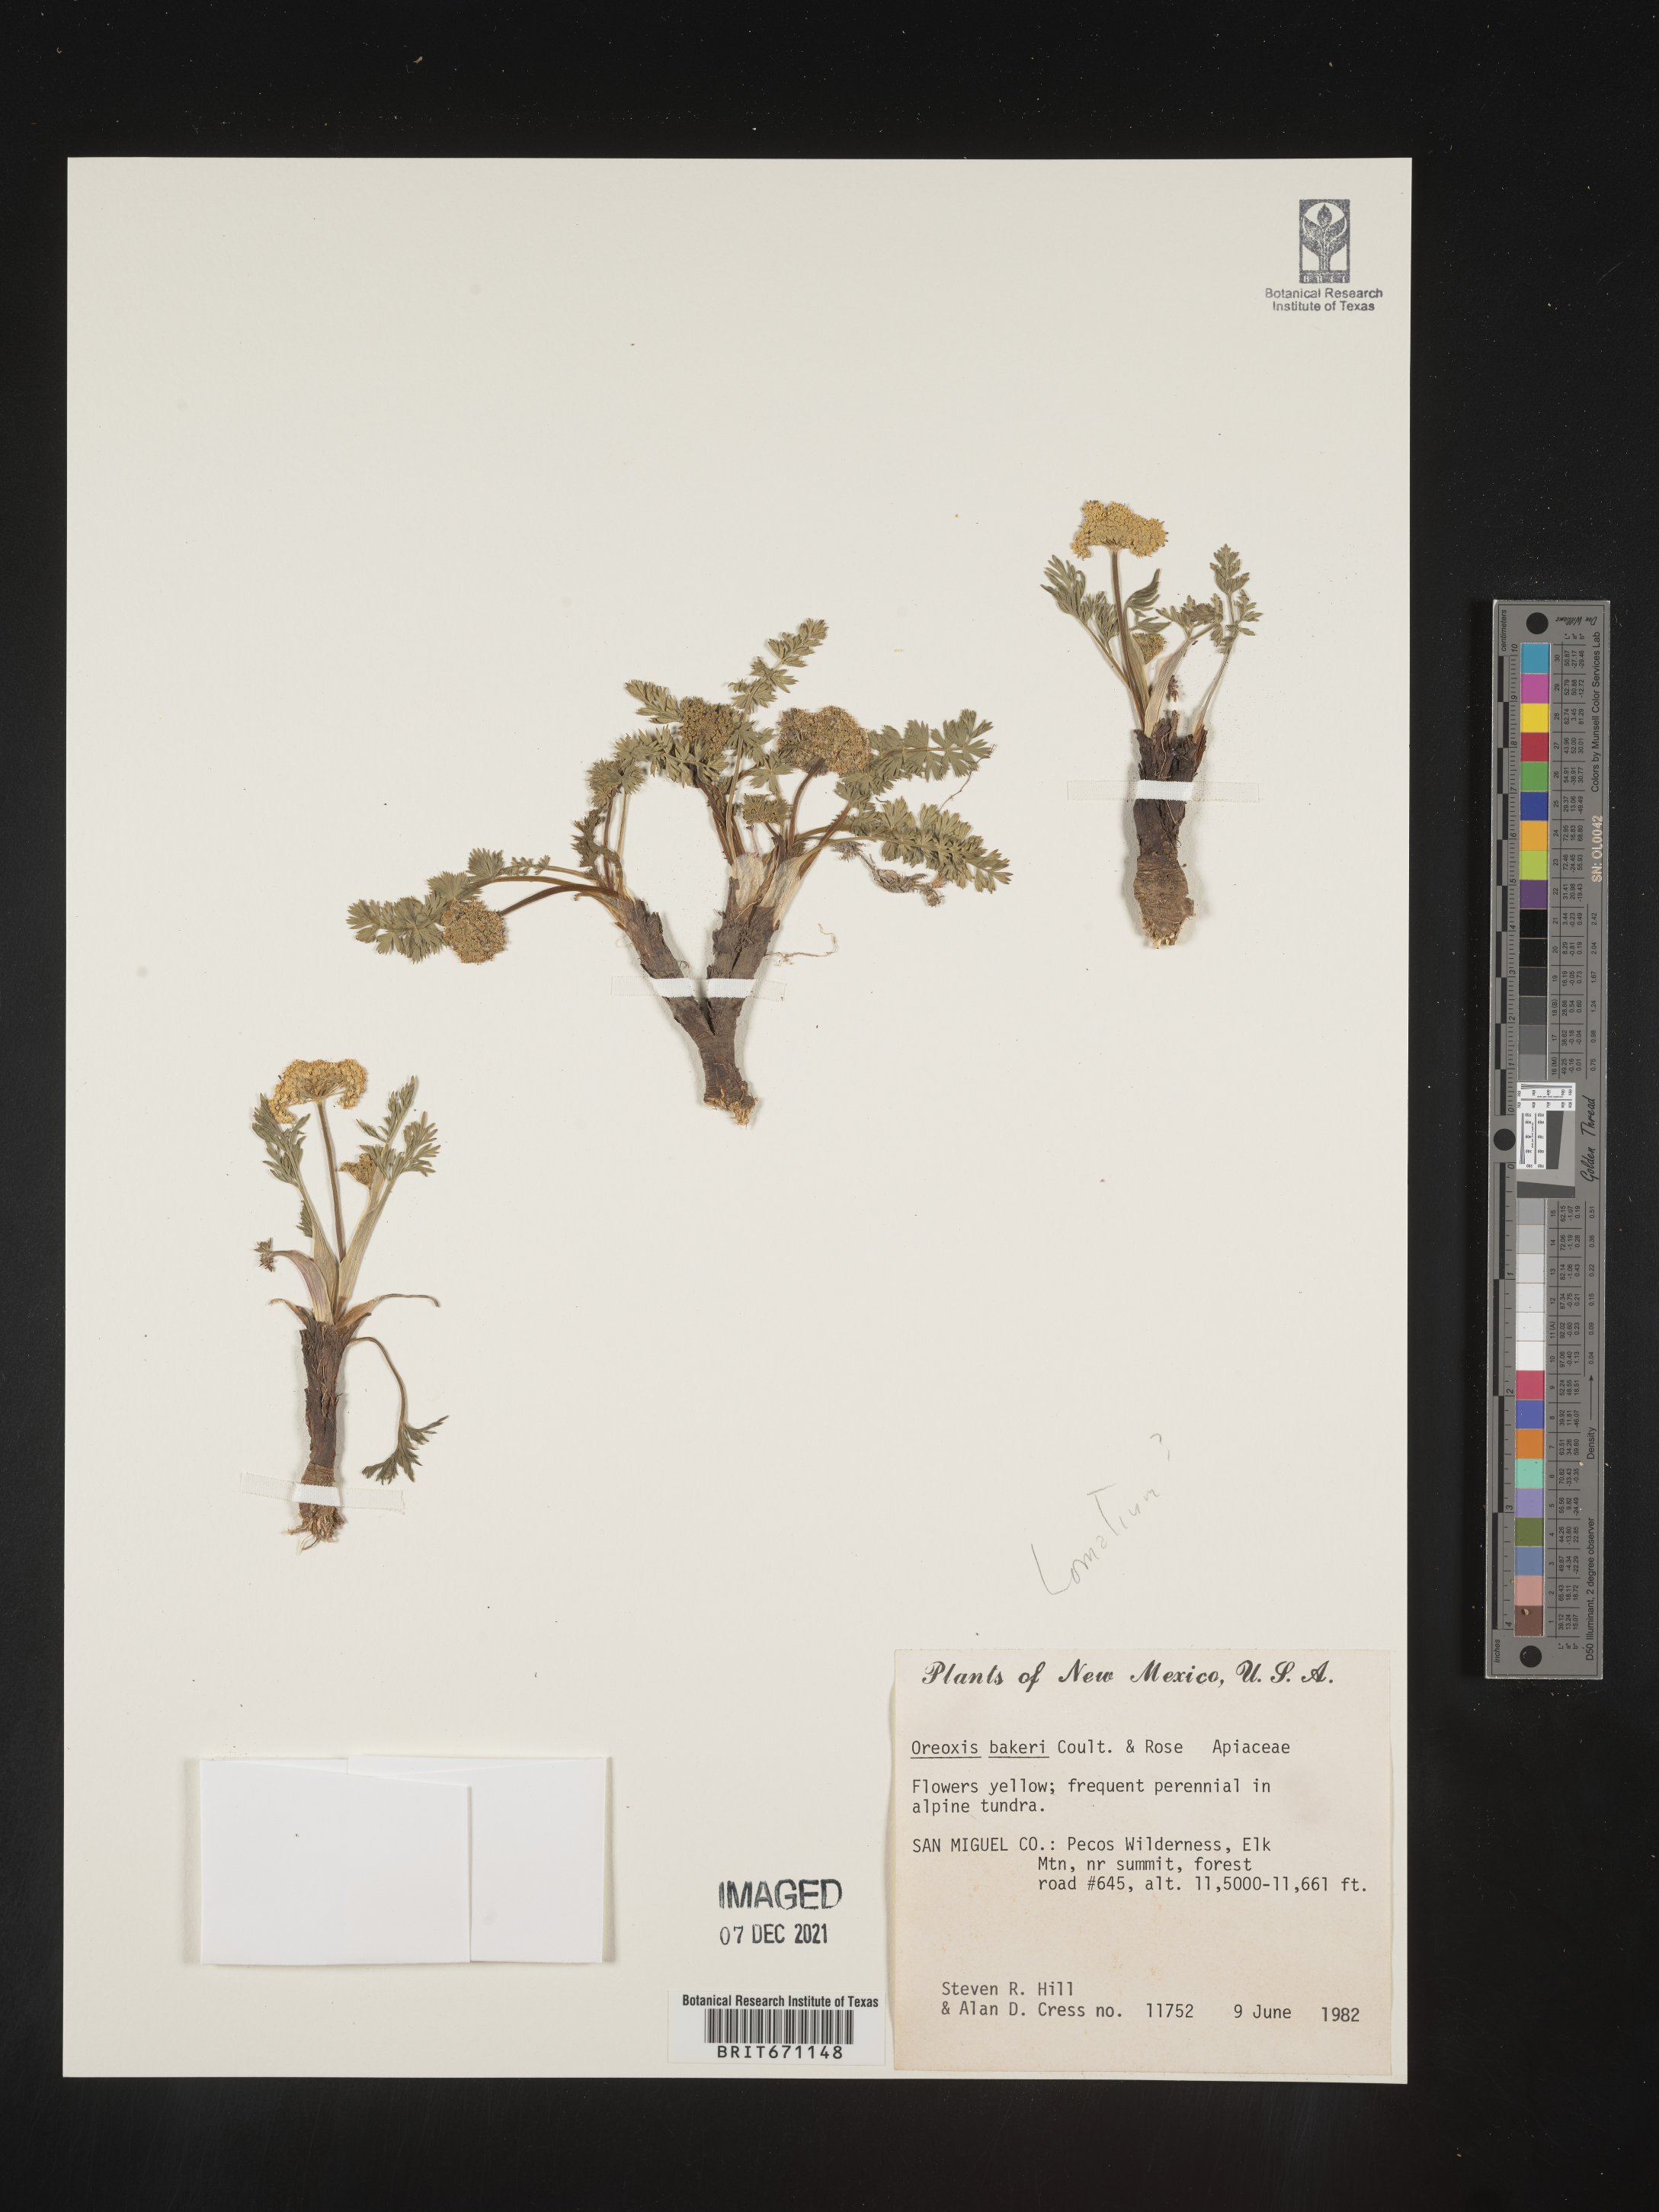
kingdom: Plantae
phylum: Tracheophyta
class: Magnoliopsida
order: Apiales
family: Apiaceae
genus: Oreoxis
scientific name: Oreoxis bakeri
